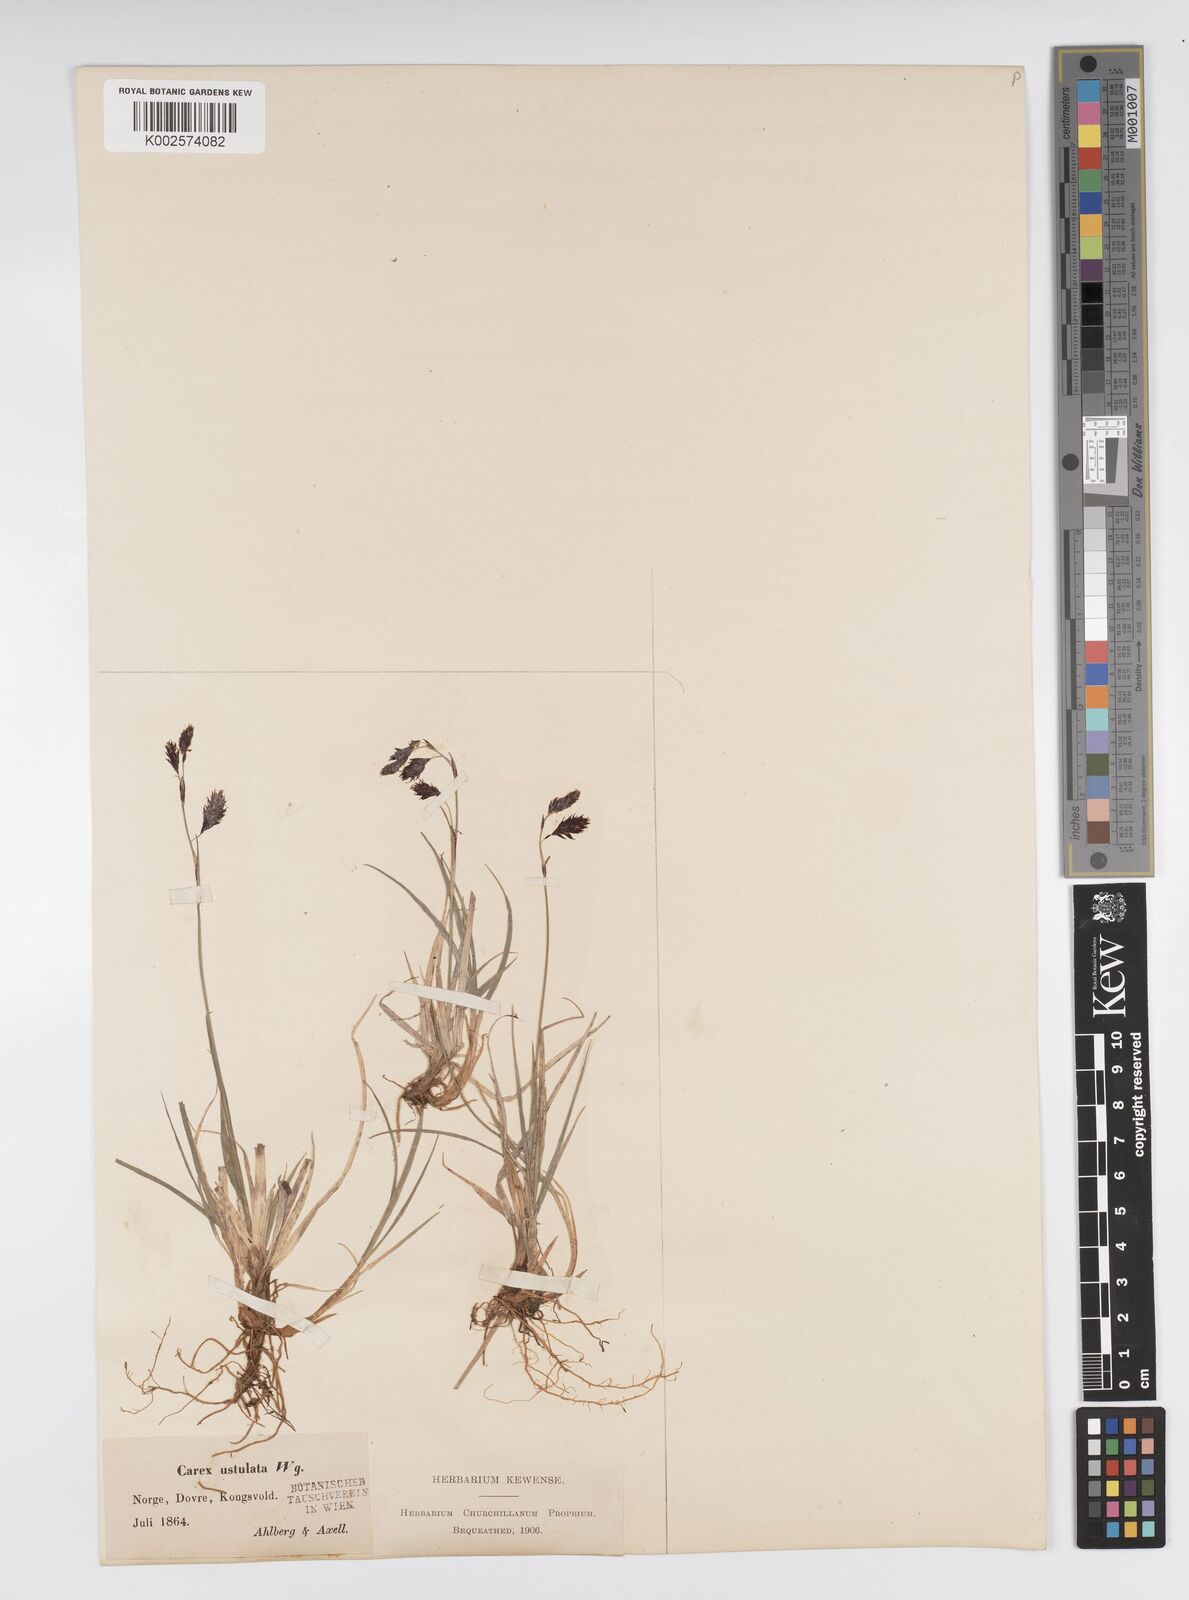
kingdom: Plantae
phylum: Tracheophyta
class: Liliopsida
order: Poales
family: Cyperaceae
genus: Carex
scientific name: Carex atrofusca
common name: Scorched alpine-sedge
